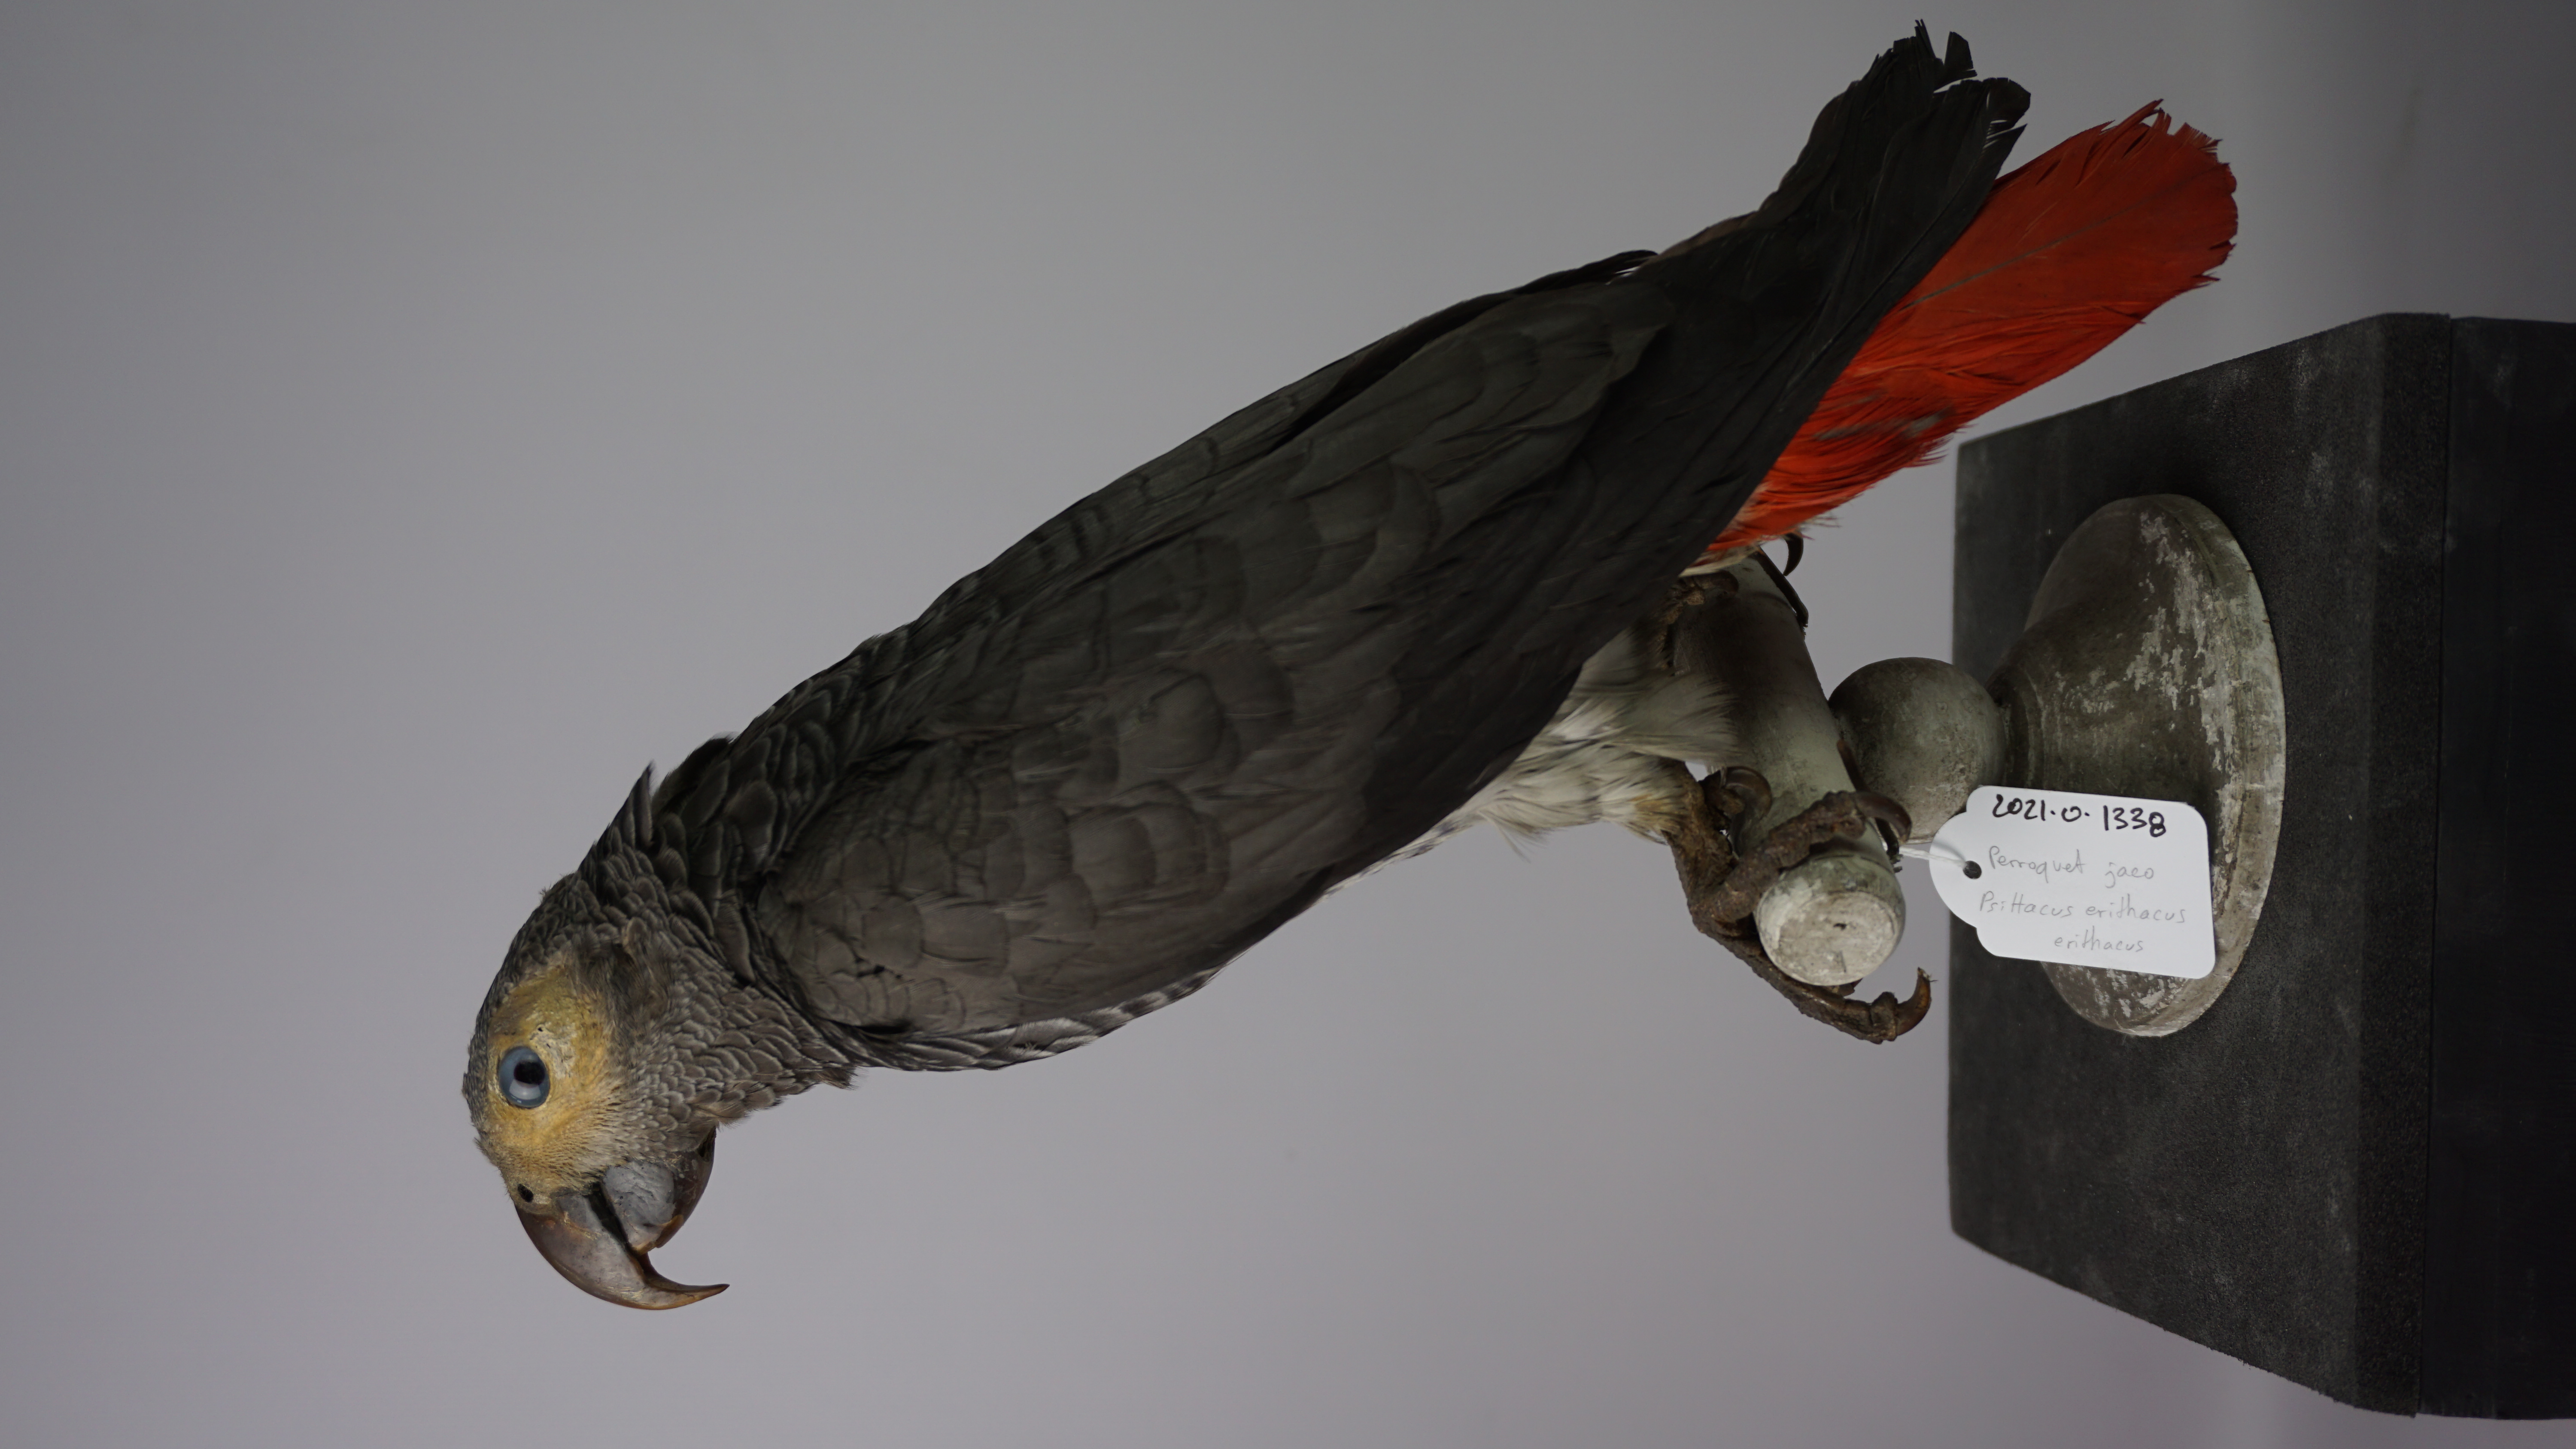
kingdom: Animalia
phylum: Chordata
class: Aves
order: Psittaciformes
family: Psittacidae
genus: Psittacus
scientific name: Psittacus erithacus
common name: Grey parrot
